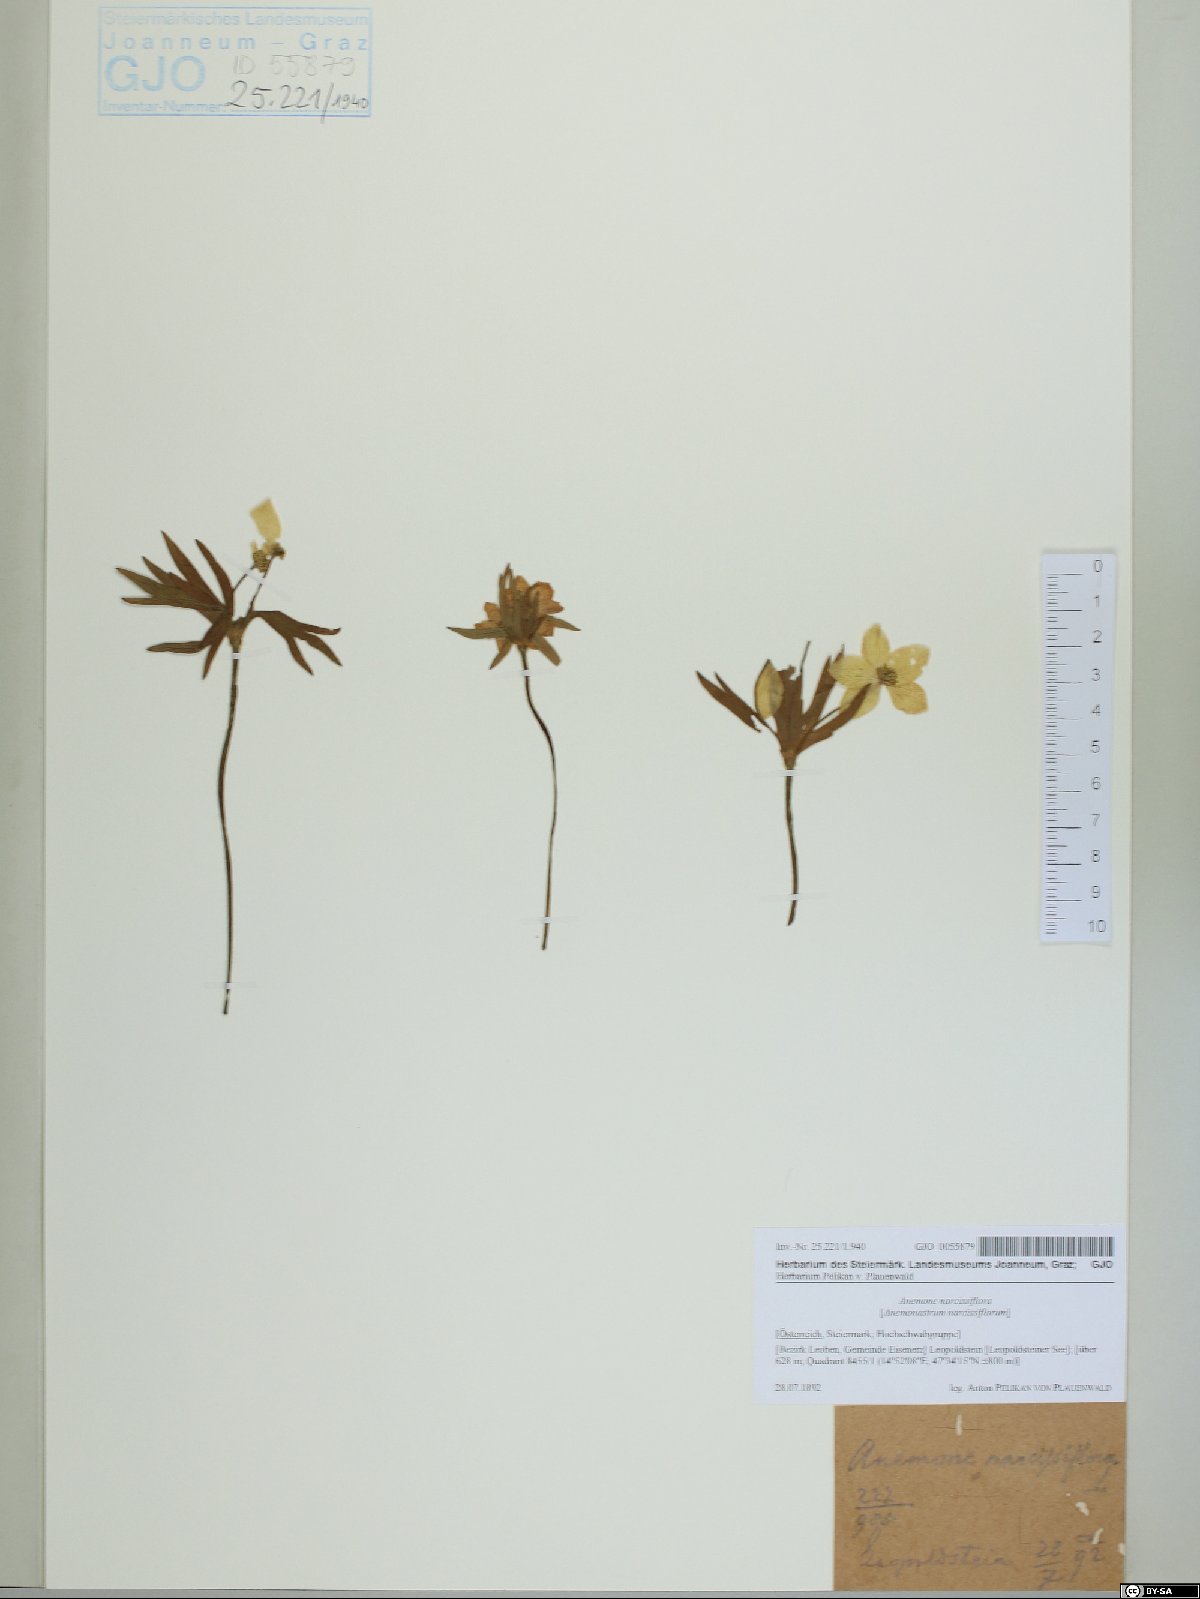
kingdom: Plantae
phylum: Tracheophyta
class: Magnoliopsida
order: Ranunculales
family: Ranunculaceae
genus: Anemonastrum
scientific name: Anemonastrum narcissiflorum
